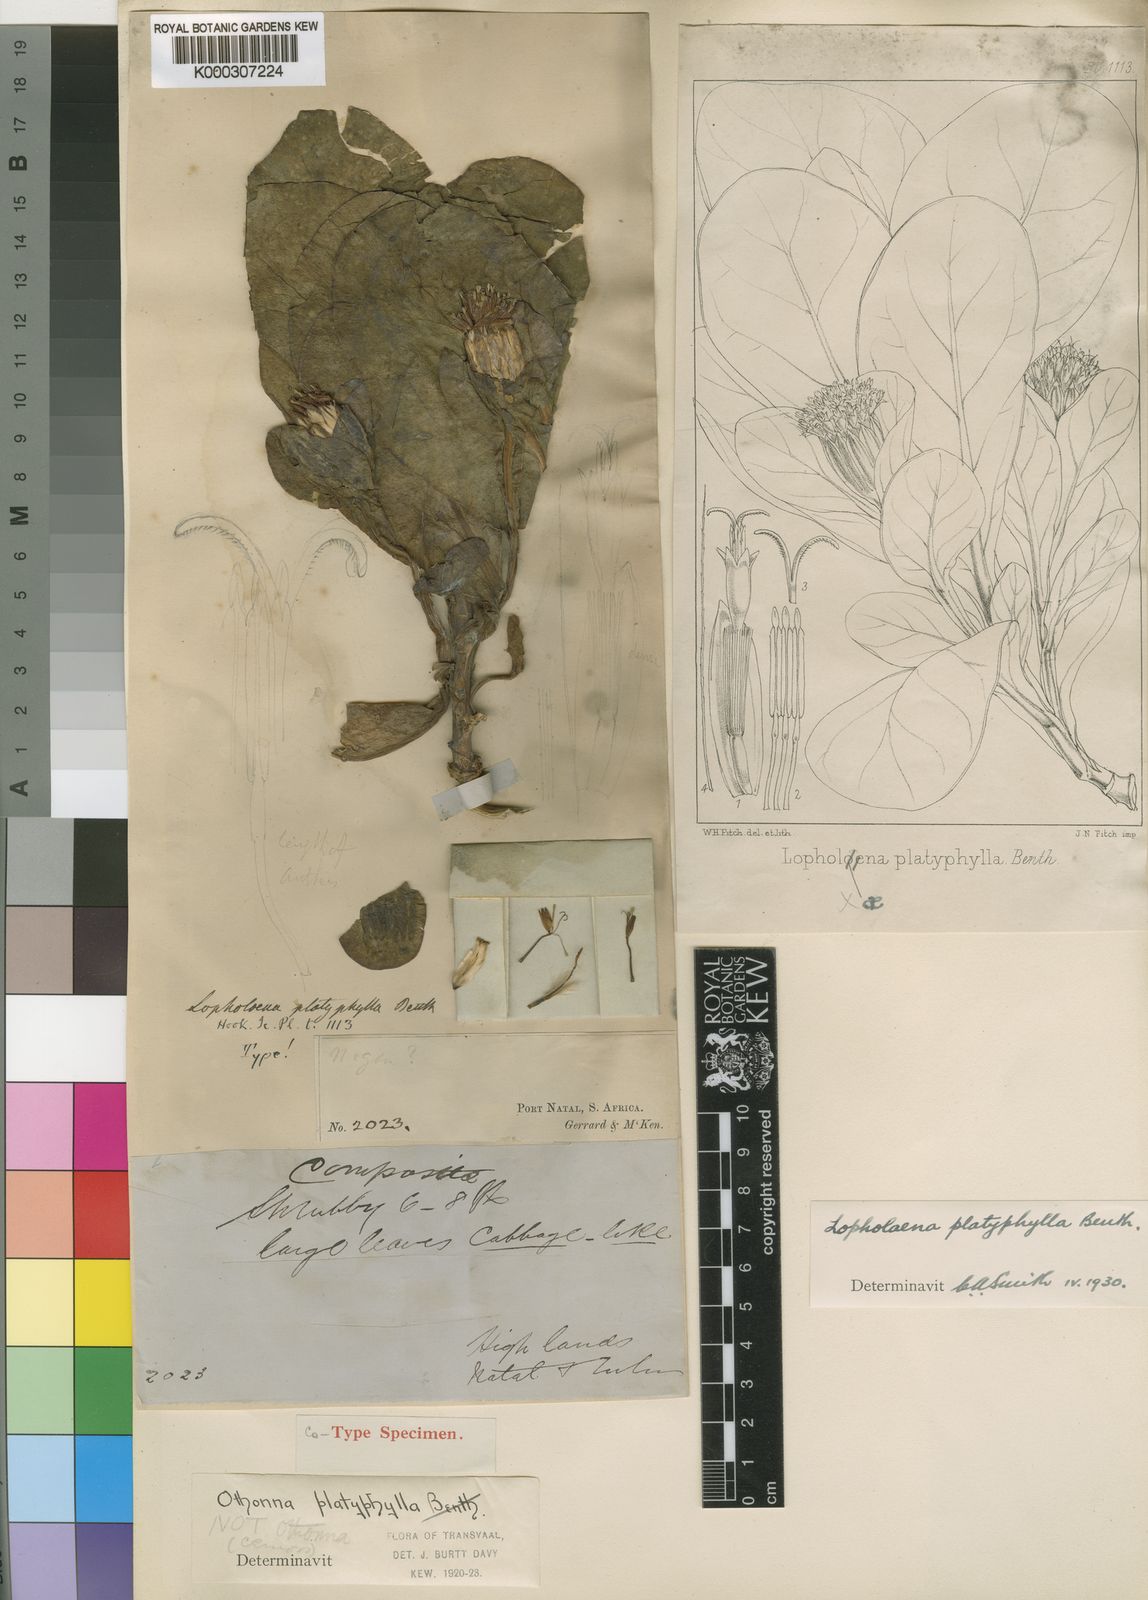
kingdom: Plantae
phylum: Tracheophyta
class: Magnoliopsida
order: Asterales
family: Asteraceae
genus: Lopholaena
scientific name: Lopholaena platyphylla
